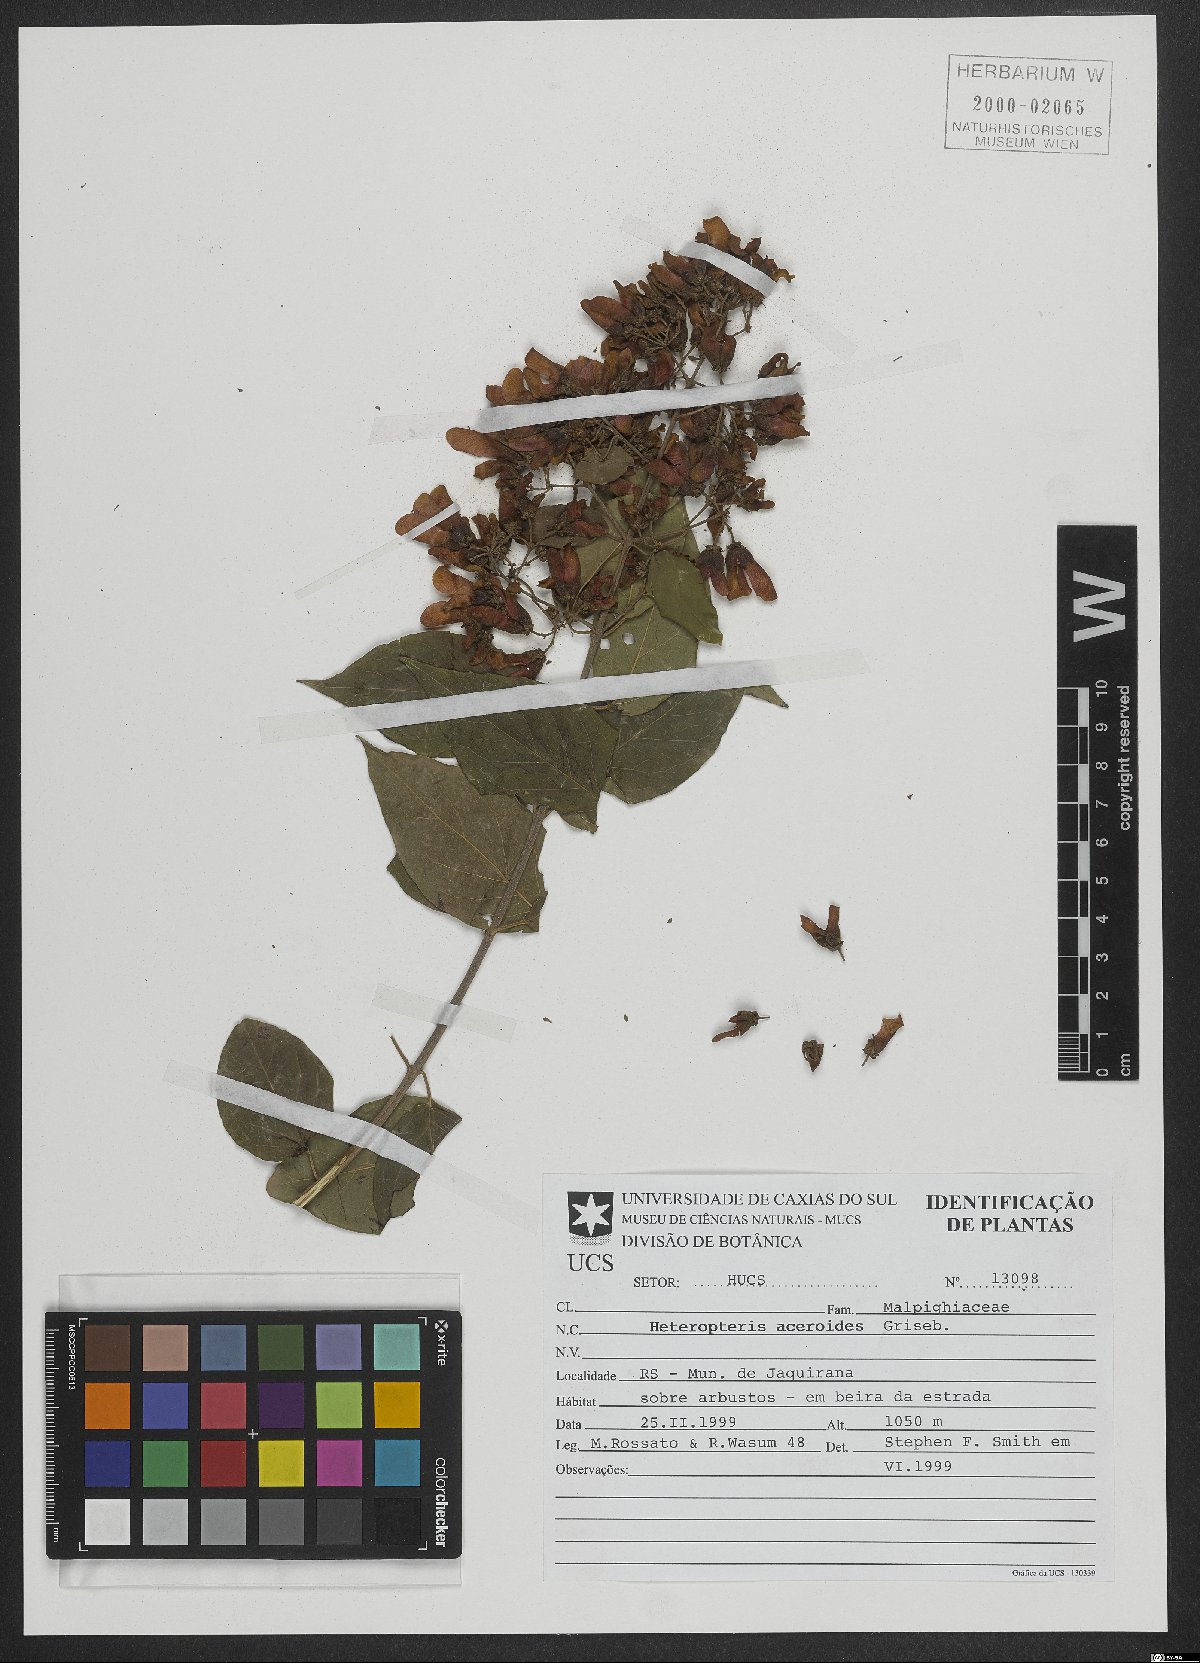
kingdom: Plantae
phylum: Tracheophyta
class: Magnoliopsida
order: Malpighiales
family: Malpighiaceae
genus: Heteropterys
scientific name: Heteropterys
